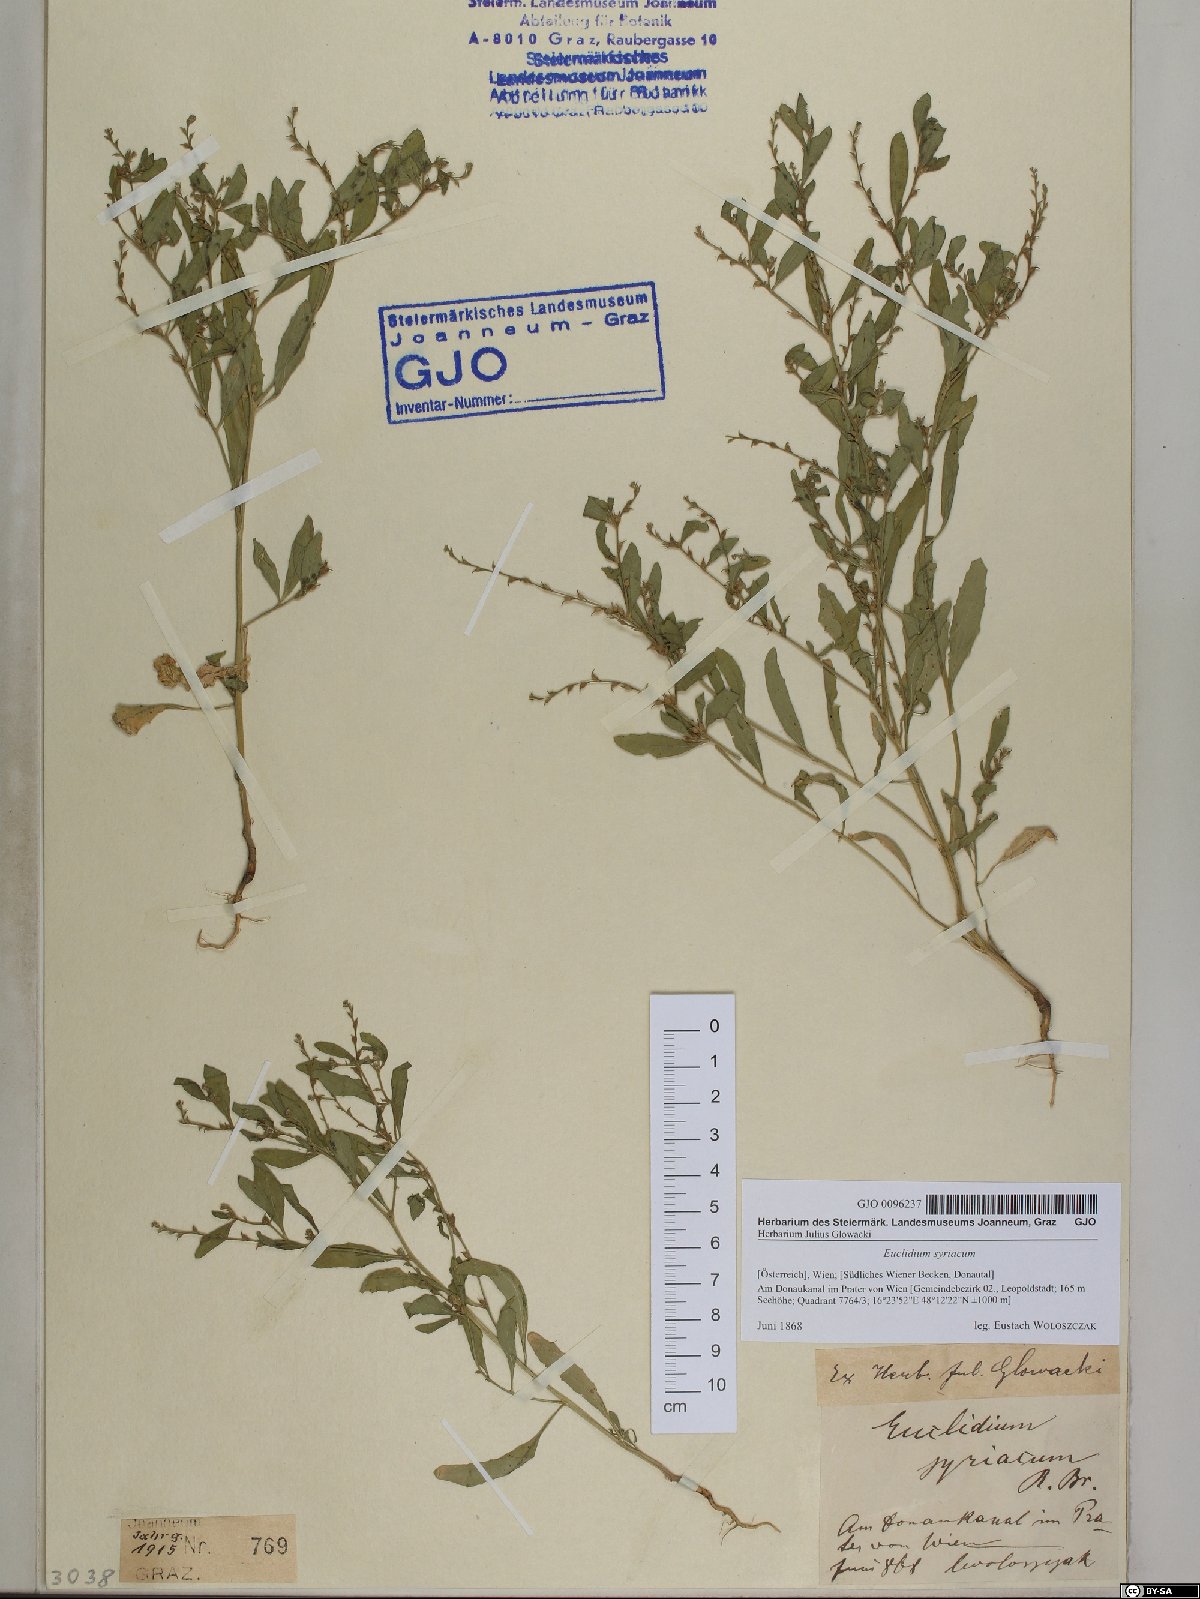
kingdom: Plantae
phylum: Tracheophyta
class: Magnoliopsida
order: Brassicales
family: Brassicaceae
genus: Euclidium
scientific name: Euclidium syriacum
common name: Syrian mustard
